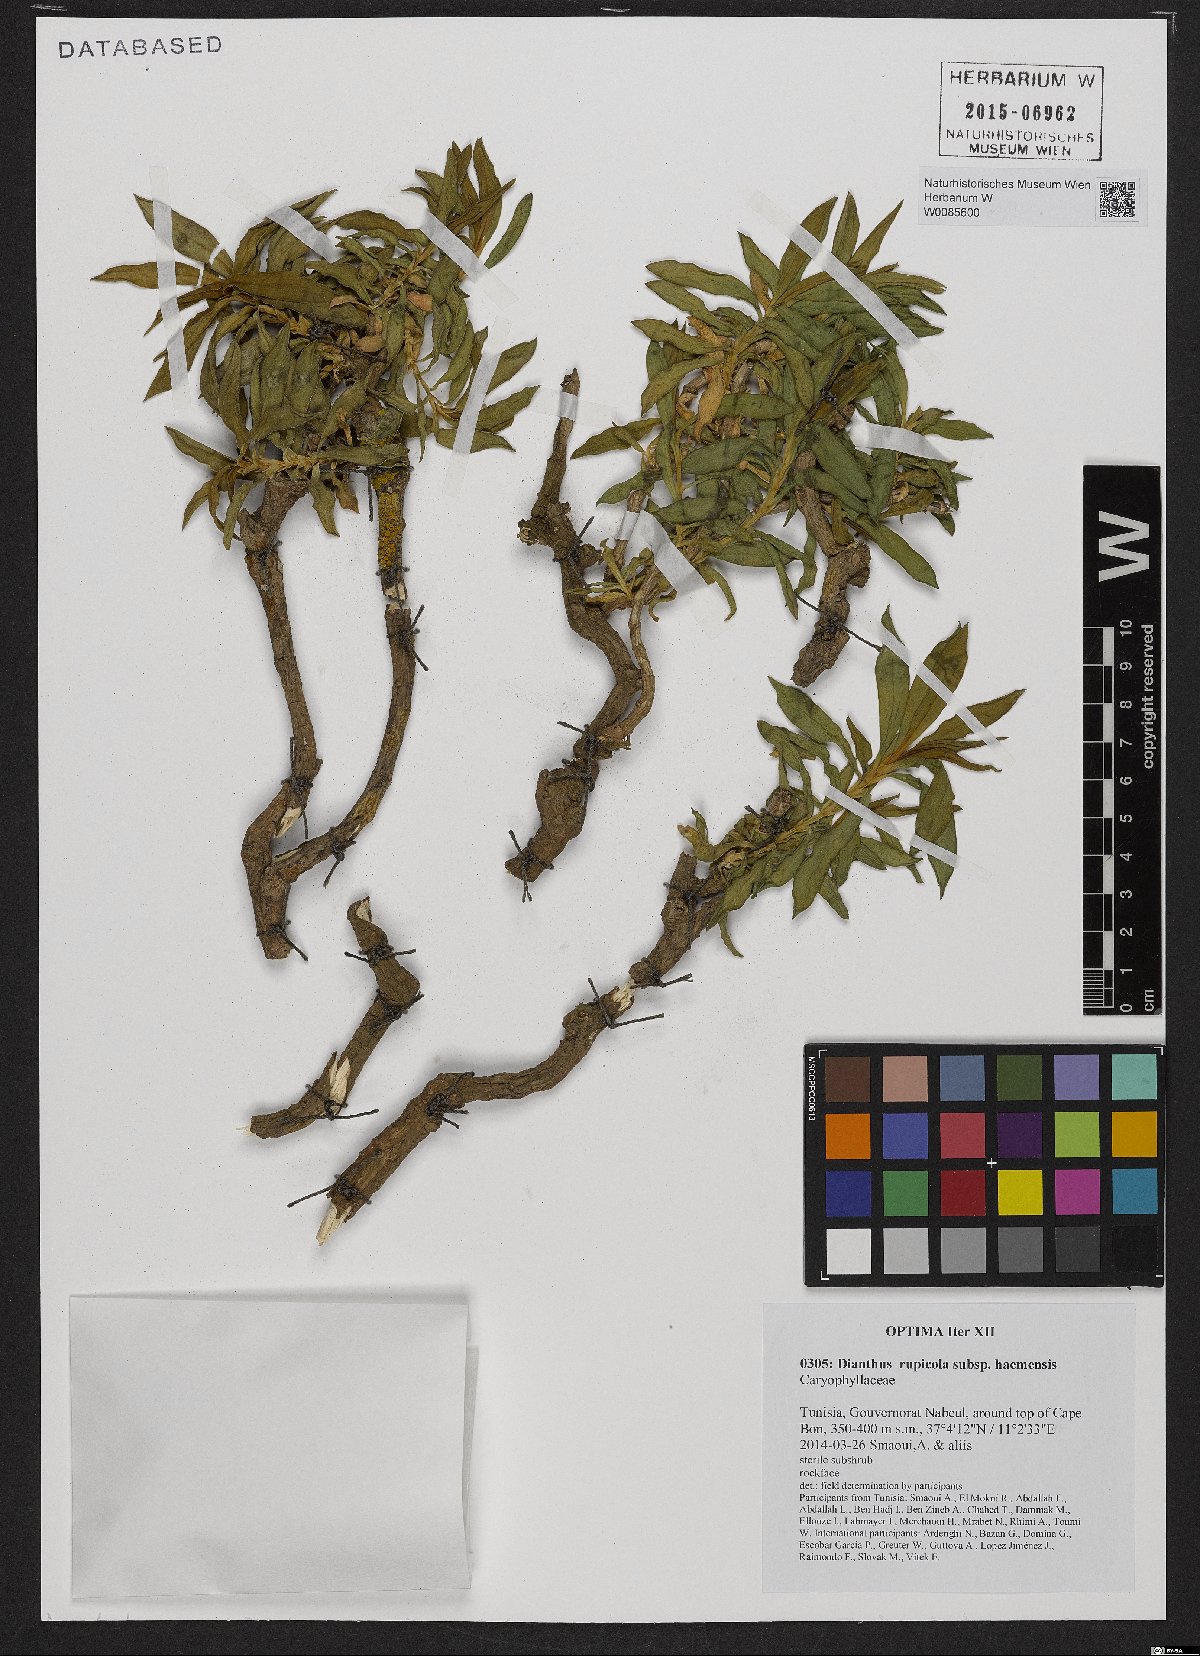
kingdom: Plantae
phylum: Tracheophyta
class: Magnoliopsida
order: Caryophyllales
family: Caryophyllaceae
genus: Dianthus
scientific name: Dianthus rupicola
